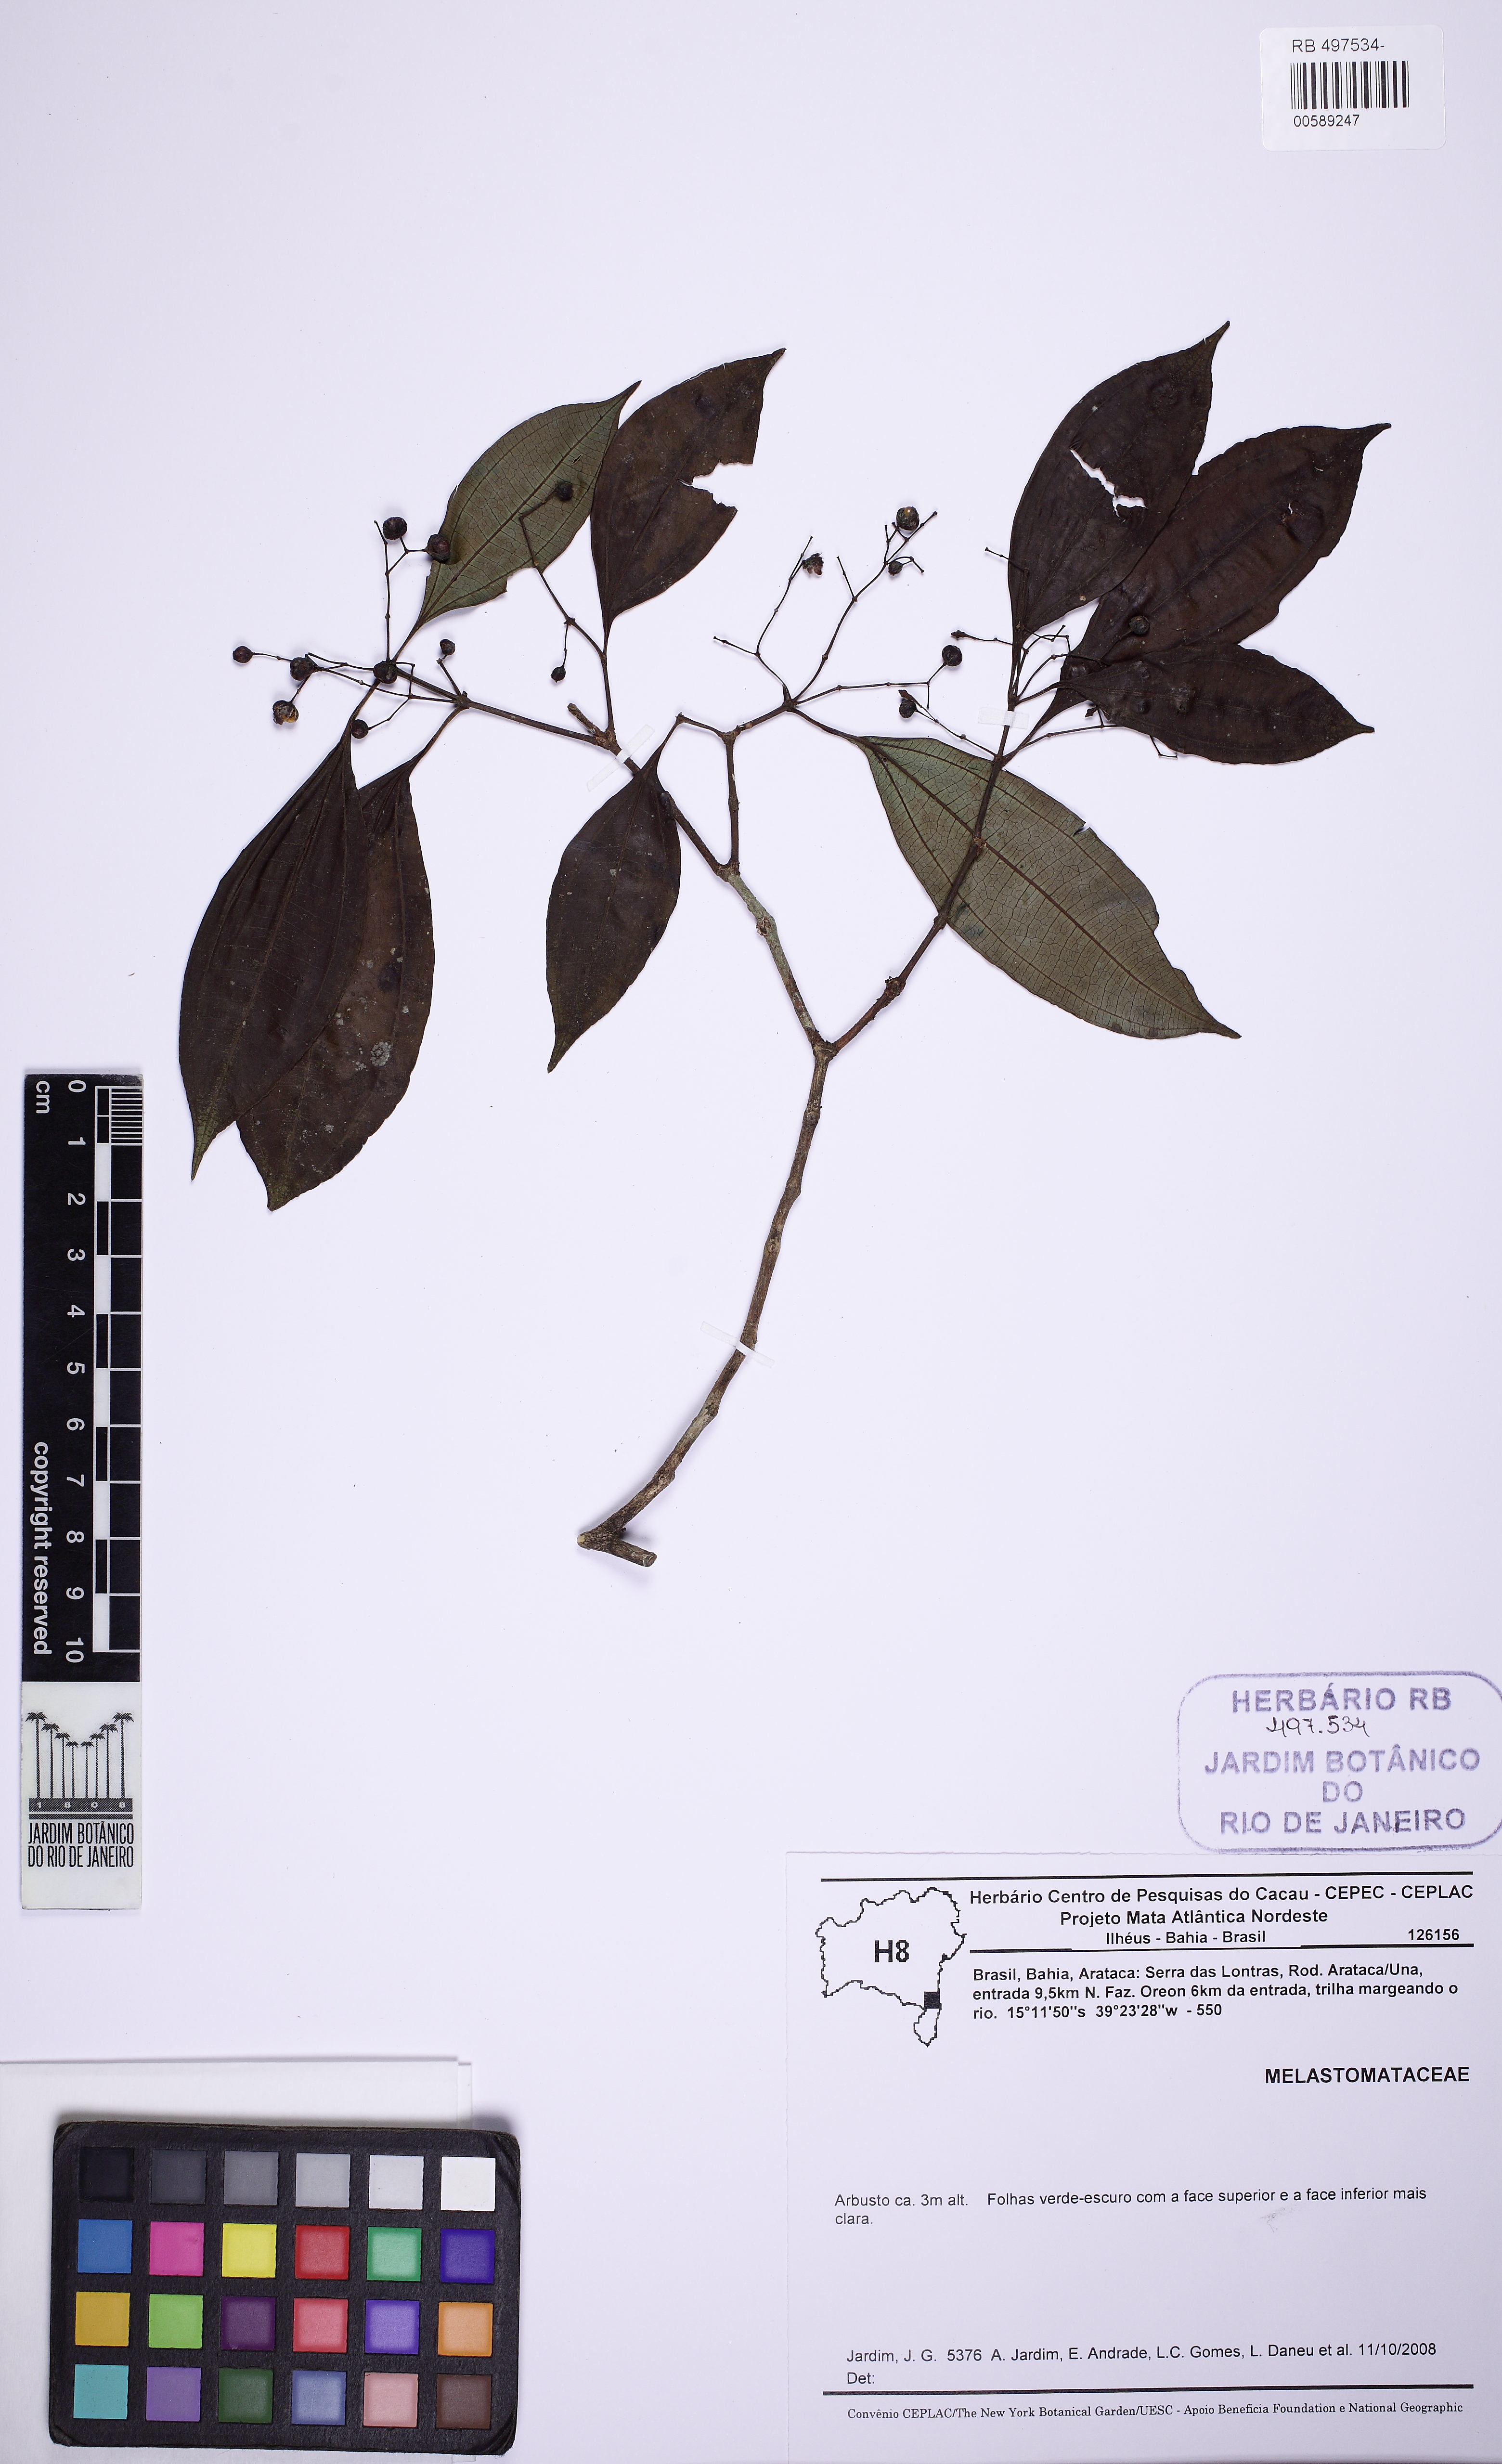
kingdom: Plantae
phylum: Tracheophyta
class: Magnoliopsida
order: Myrtales
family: Melastomataceae
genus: Miconia
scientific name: Miconia tristis
